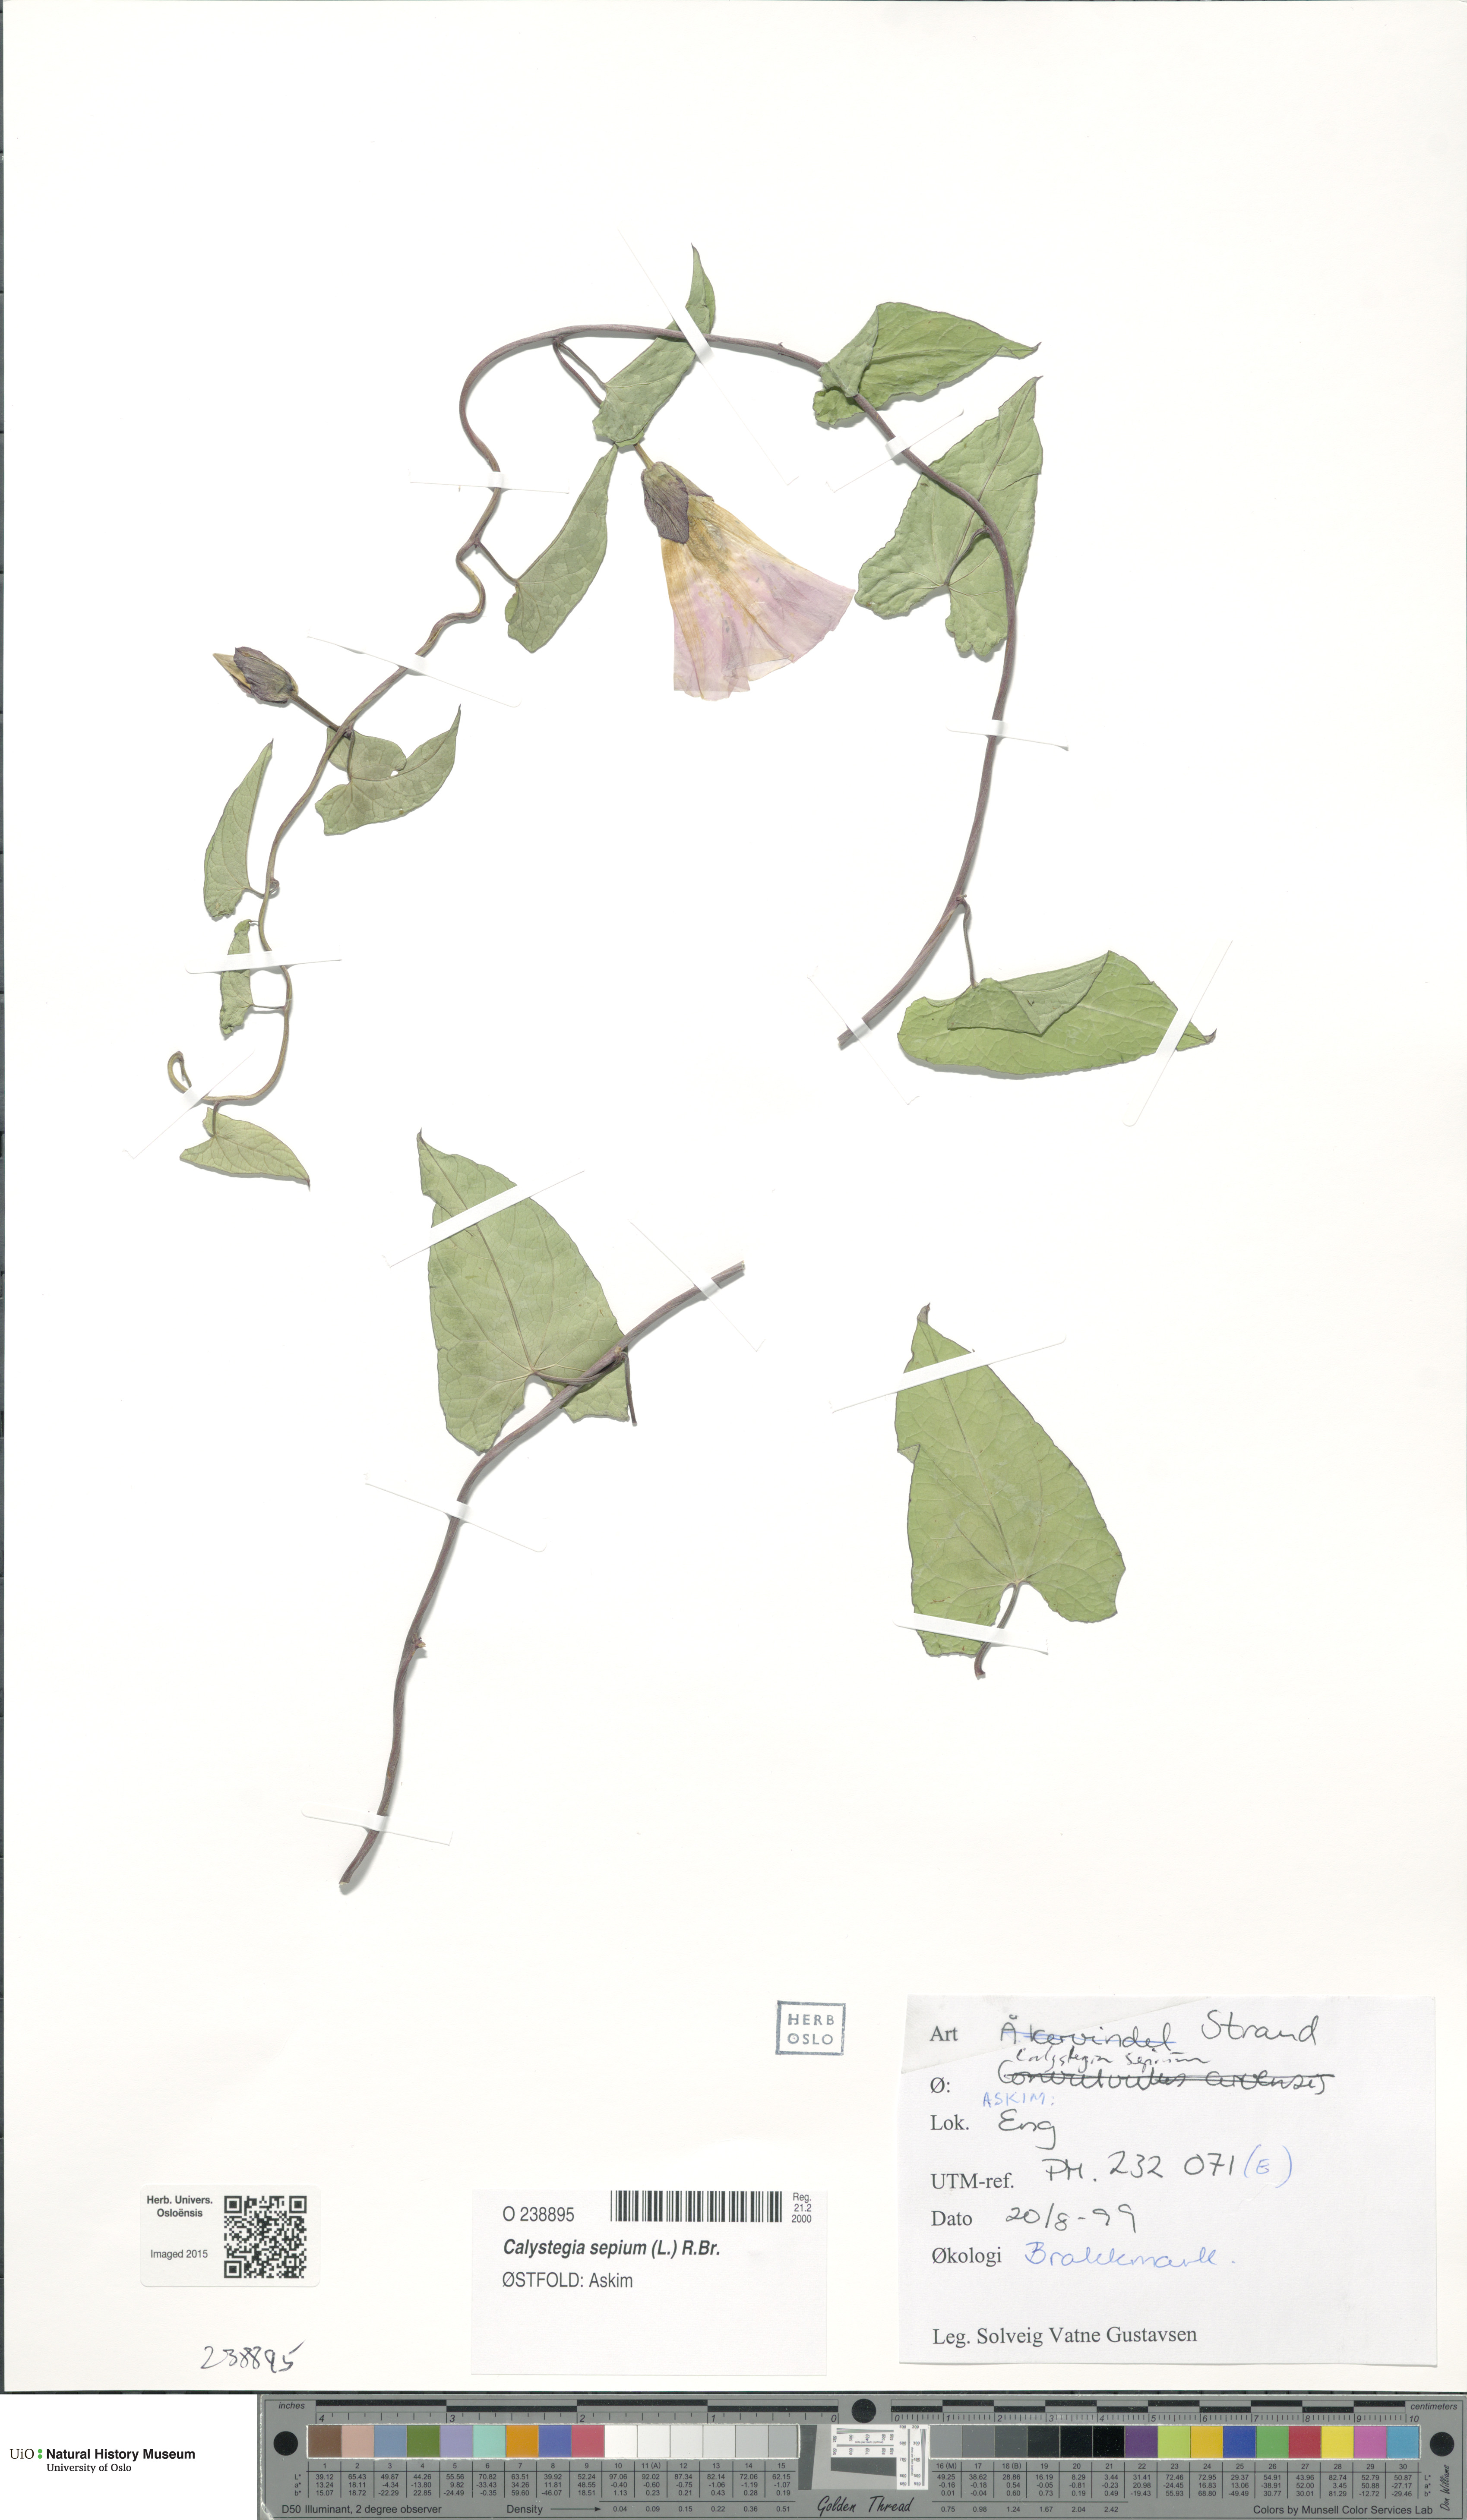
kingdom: Plantae
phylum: Tracheophyta
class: Magnoliopsida
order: Solanales
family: Convolvulaceae
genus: Calystegia
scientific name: Calystegia sepium
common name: Hedge bindweed
